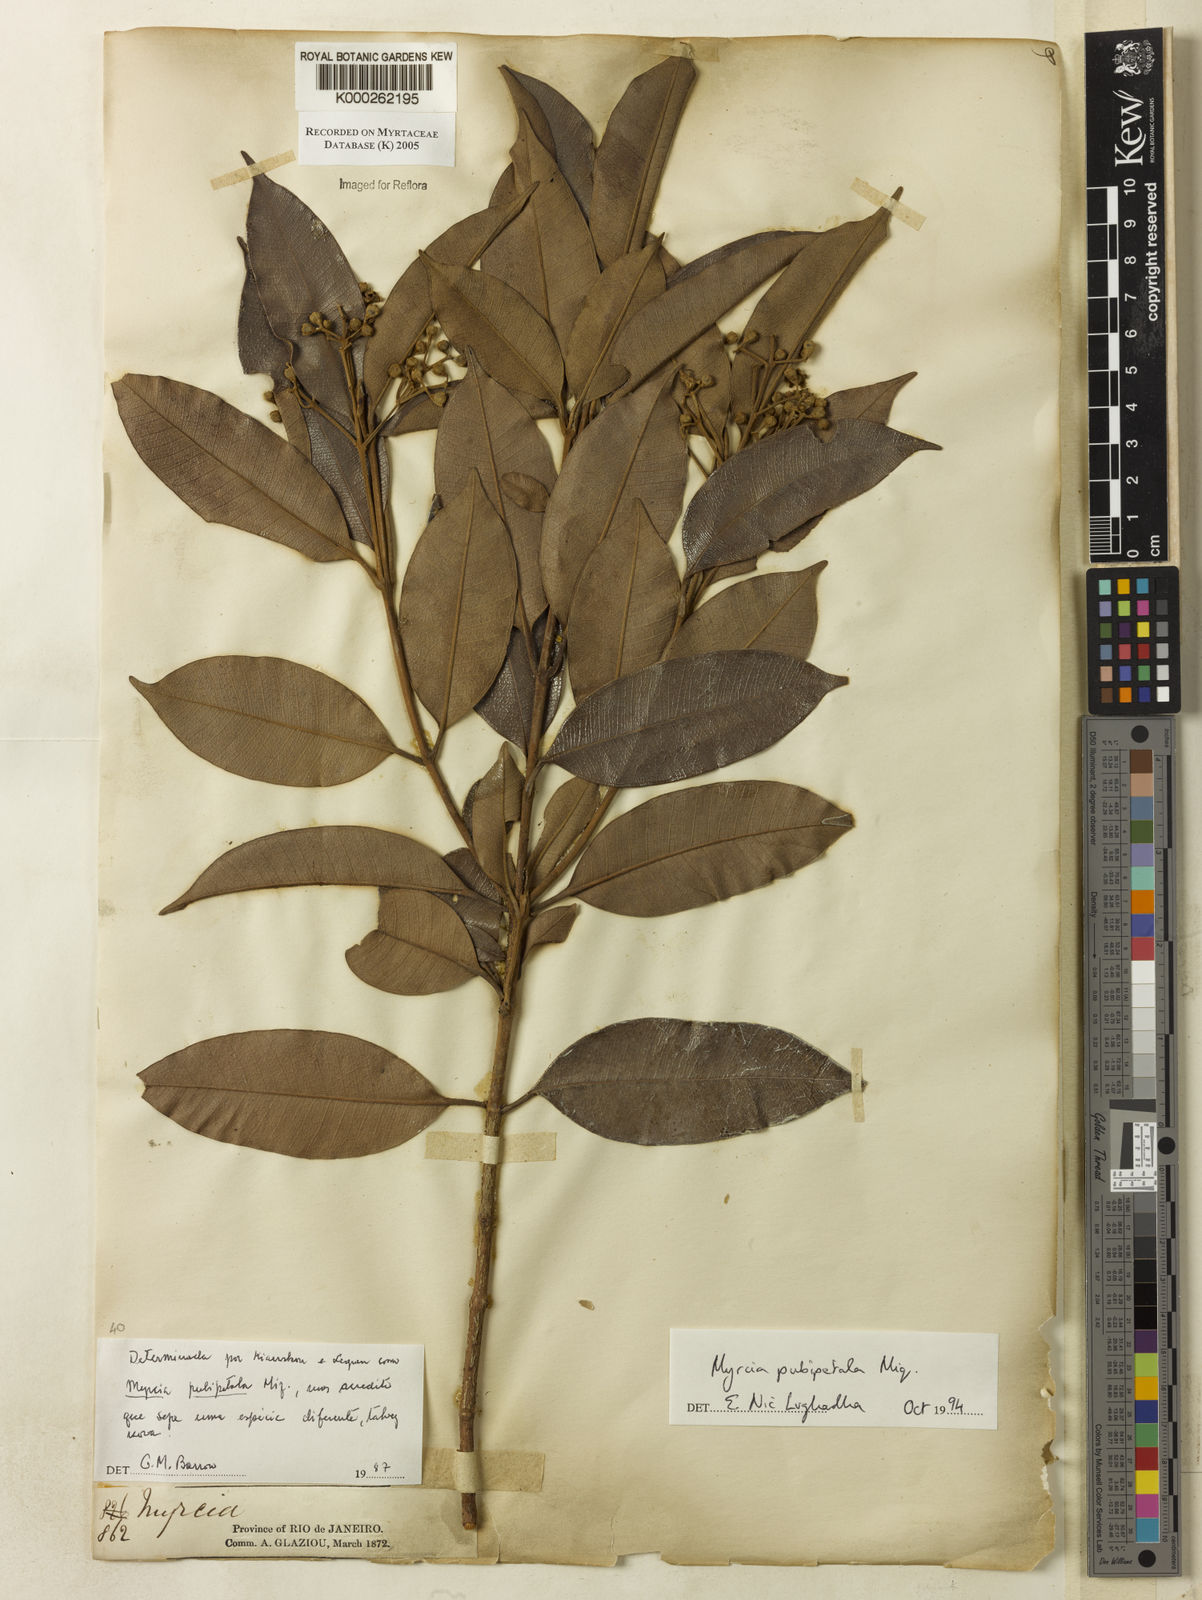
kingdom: Plantae
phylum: Tracheophyta
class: Magnoliopsida
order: Myrtales
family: Myrtaceae
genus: Myrcia
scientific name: Myrcia pubipetala
